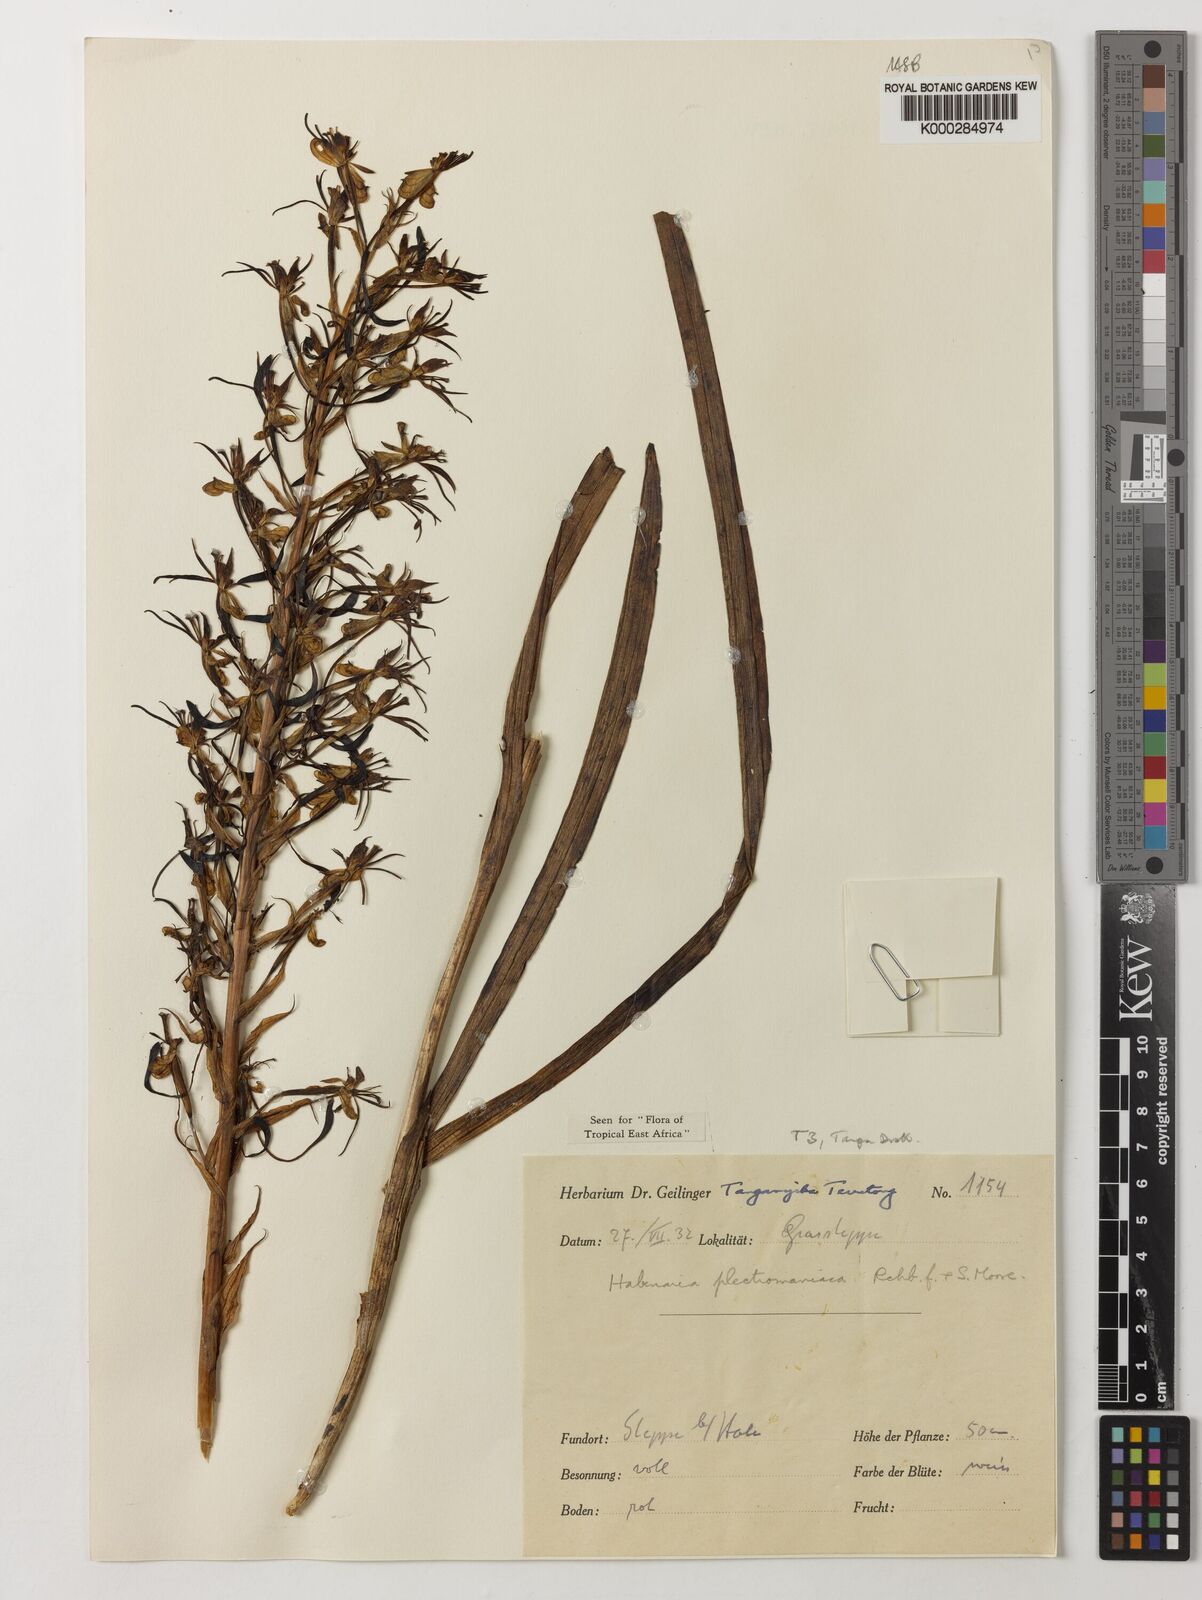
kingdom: Plantae
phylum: Tracheophyta
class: Liliopsida
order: Asparagales
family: Orchidaceae
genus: Habenaria
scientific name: Habenaria plectromaniaca
